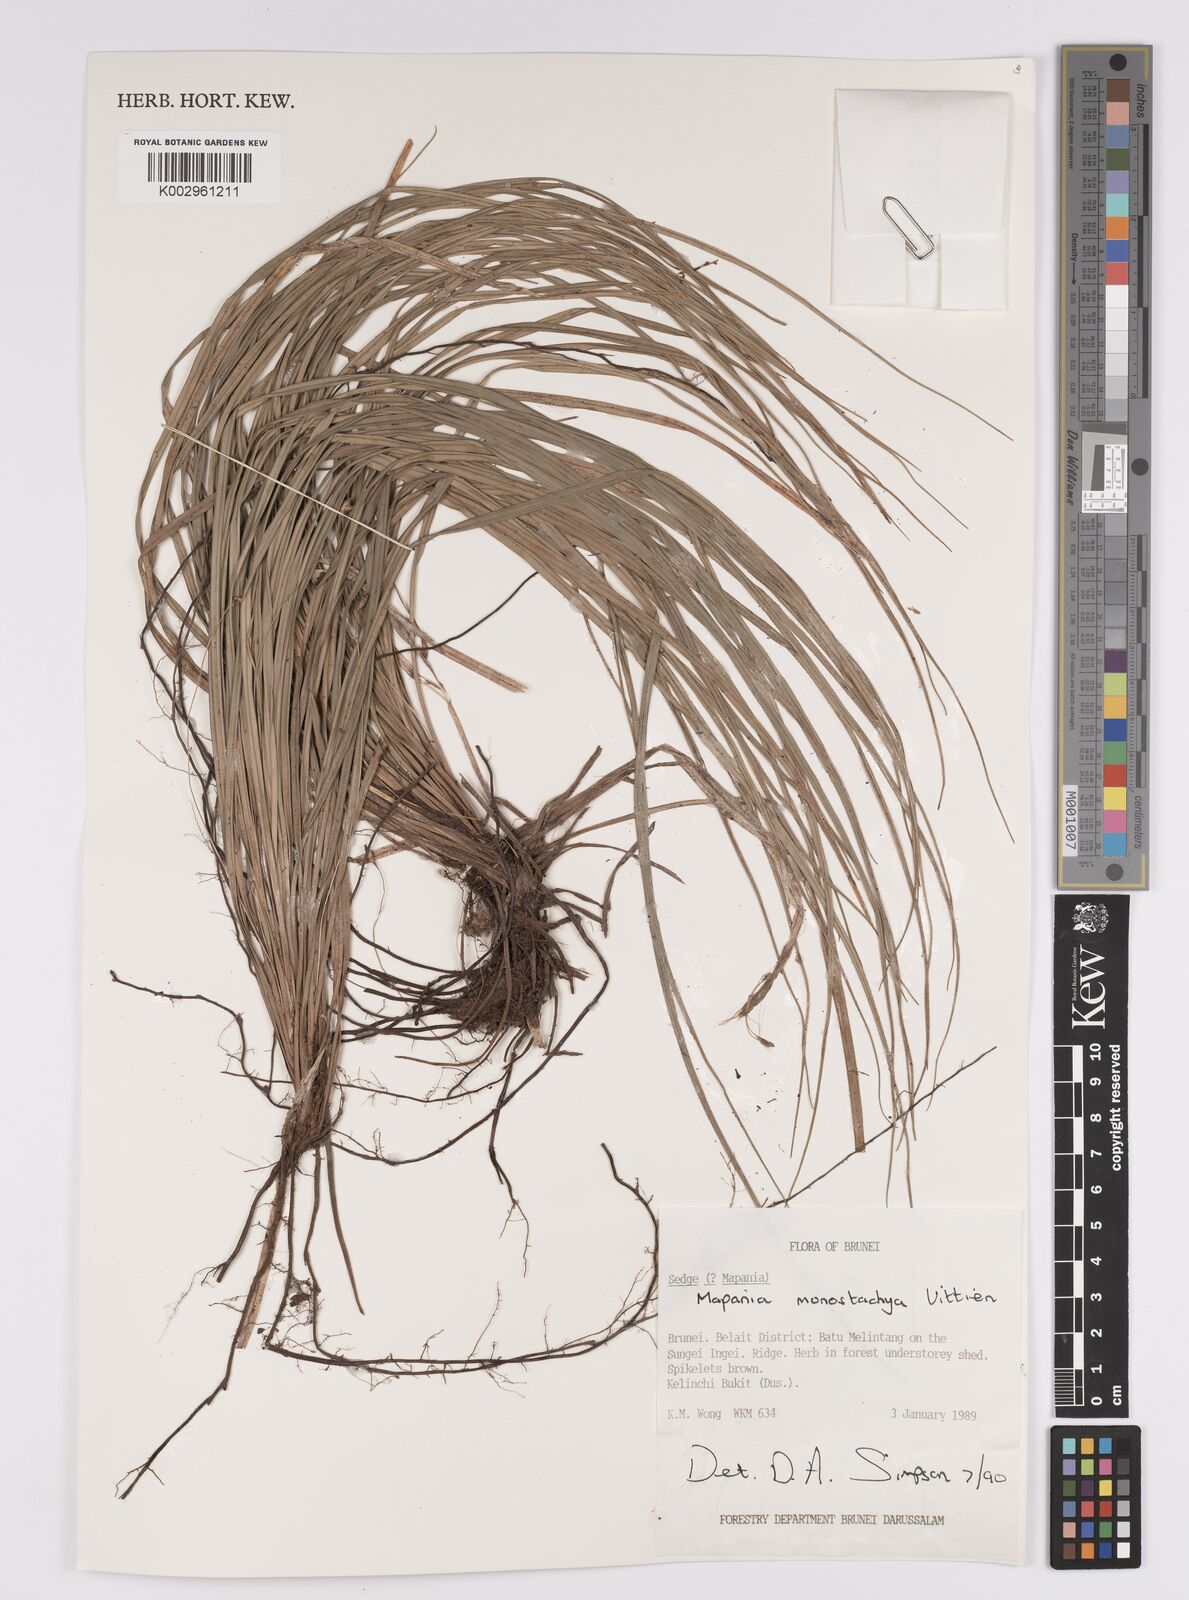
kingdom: Plantae
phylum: Tracheophyta
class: Liliopsida
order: Poales
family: Cyperaceae
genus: Mapania
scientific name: Mapania monostachya
